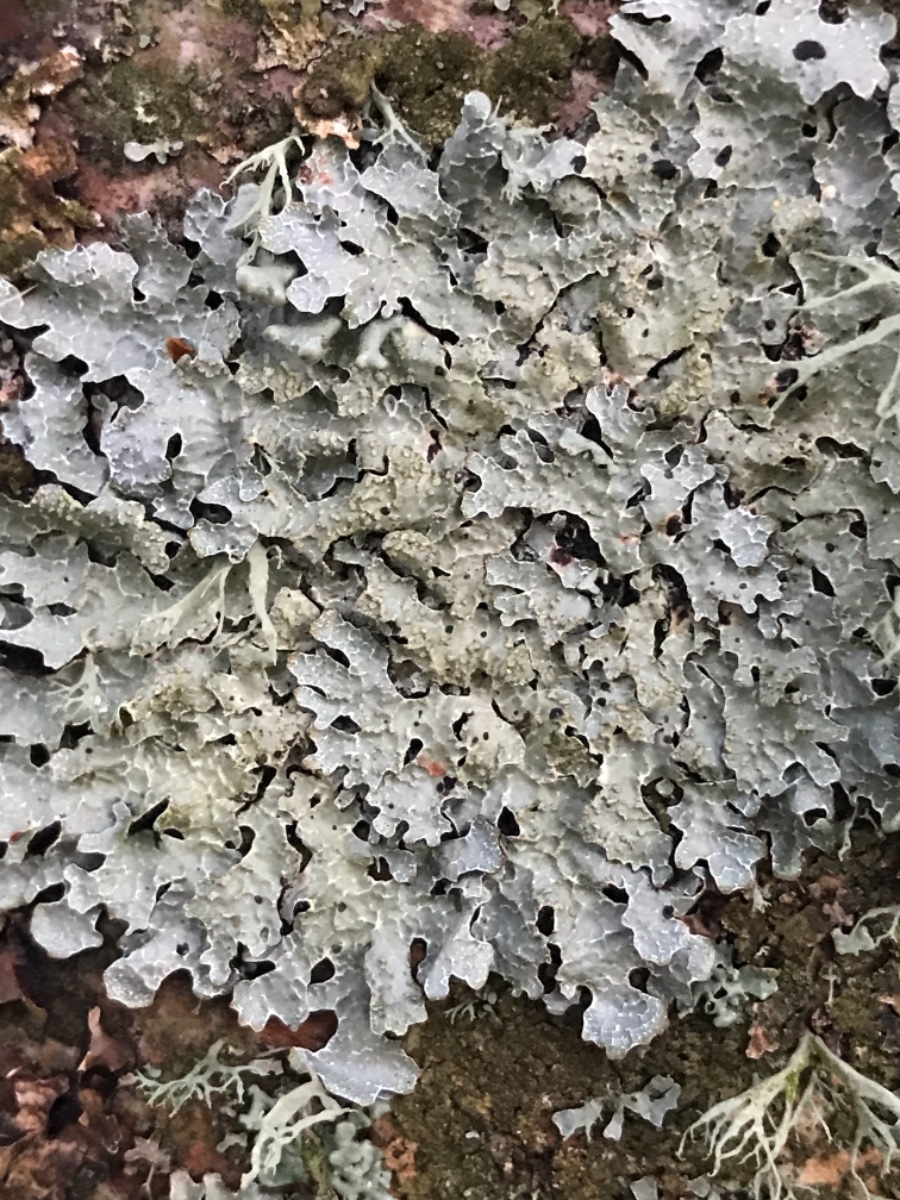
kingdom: Fungi
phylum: Ascomycota
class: Lecanoromycetes
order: Lecanorales
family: Parmeliaceae
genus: Parmelia
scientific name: Parmelia sulcata
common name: rynket skållav
